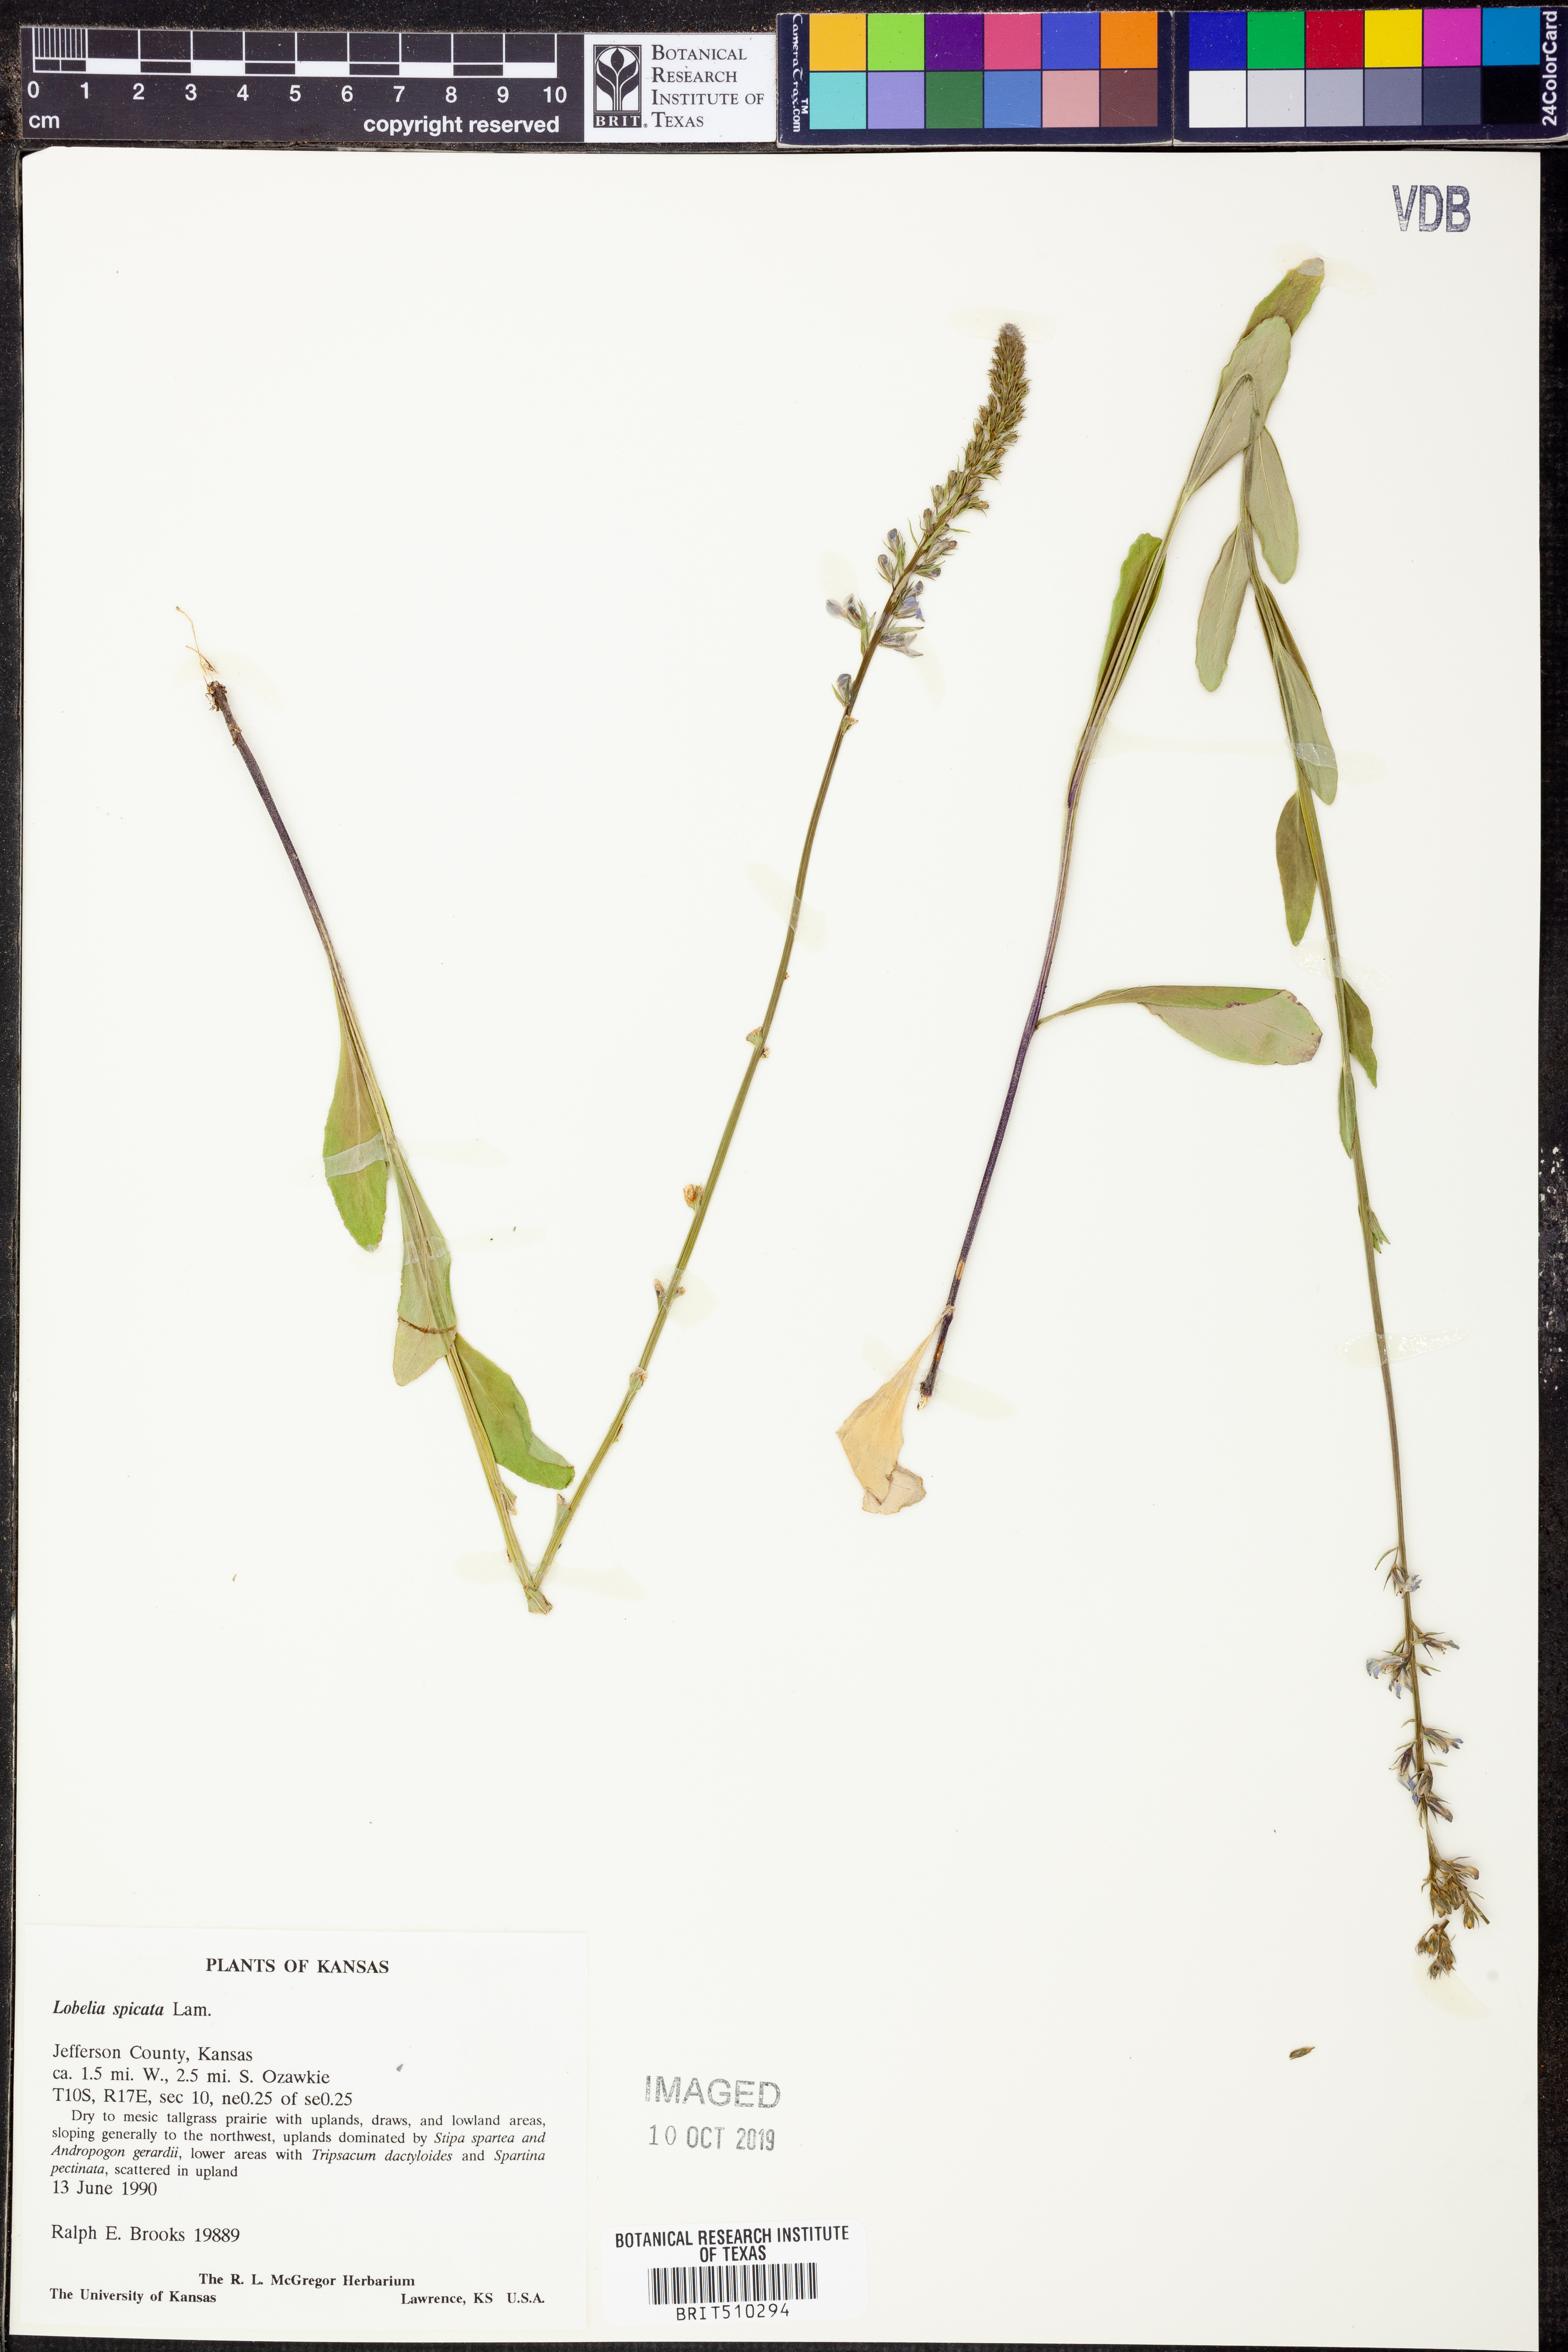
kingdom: Plantae
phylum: Tracheophyta
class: Magnoliopsida
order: Asterales
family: Campanulaceae
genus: Lobelia
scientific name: Lobelia spicata
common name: Pale-spike lobelia
